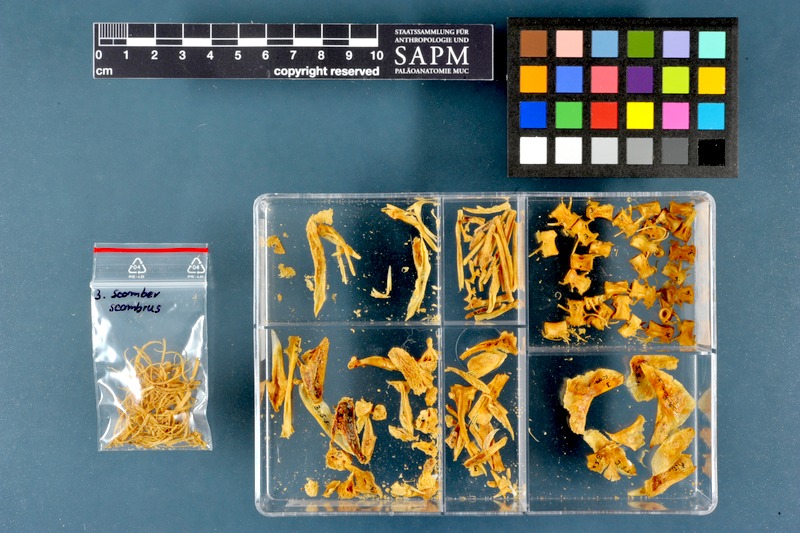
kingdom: Animalia
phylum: Chordata
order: Perciformes
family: Scombridae
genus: Scomber
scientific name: Scomber scombrus
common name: Mackerel
